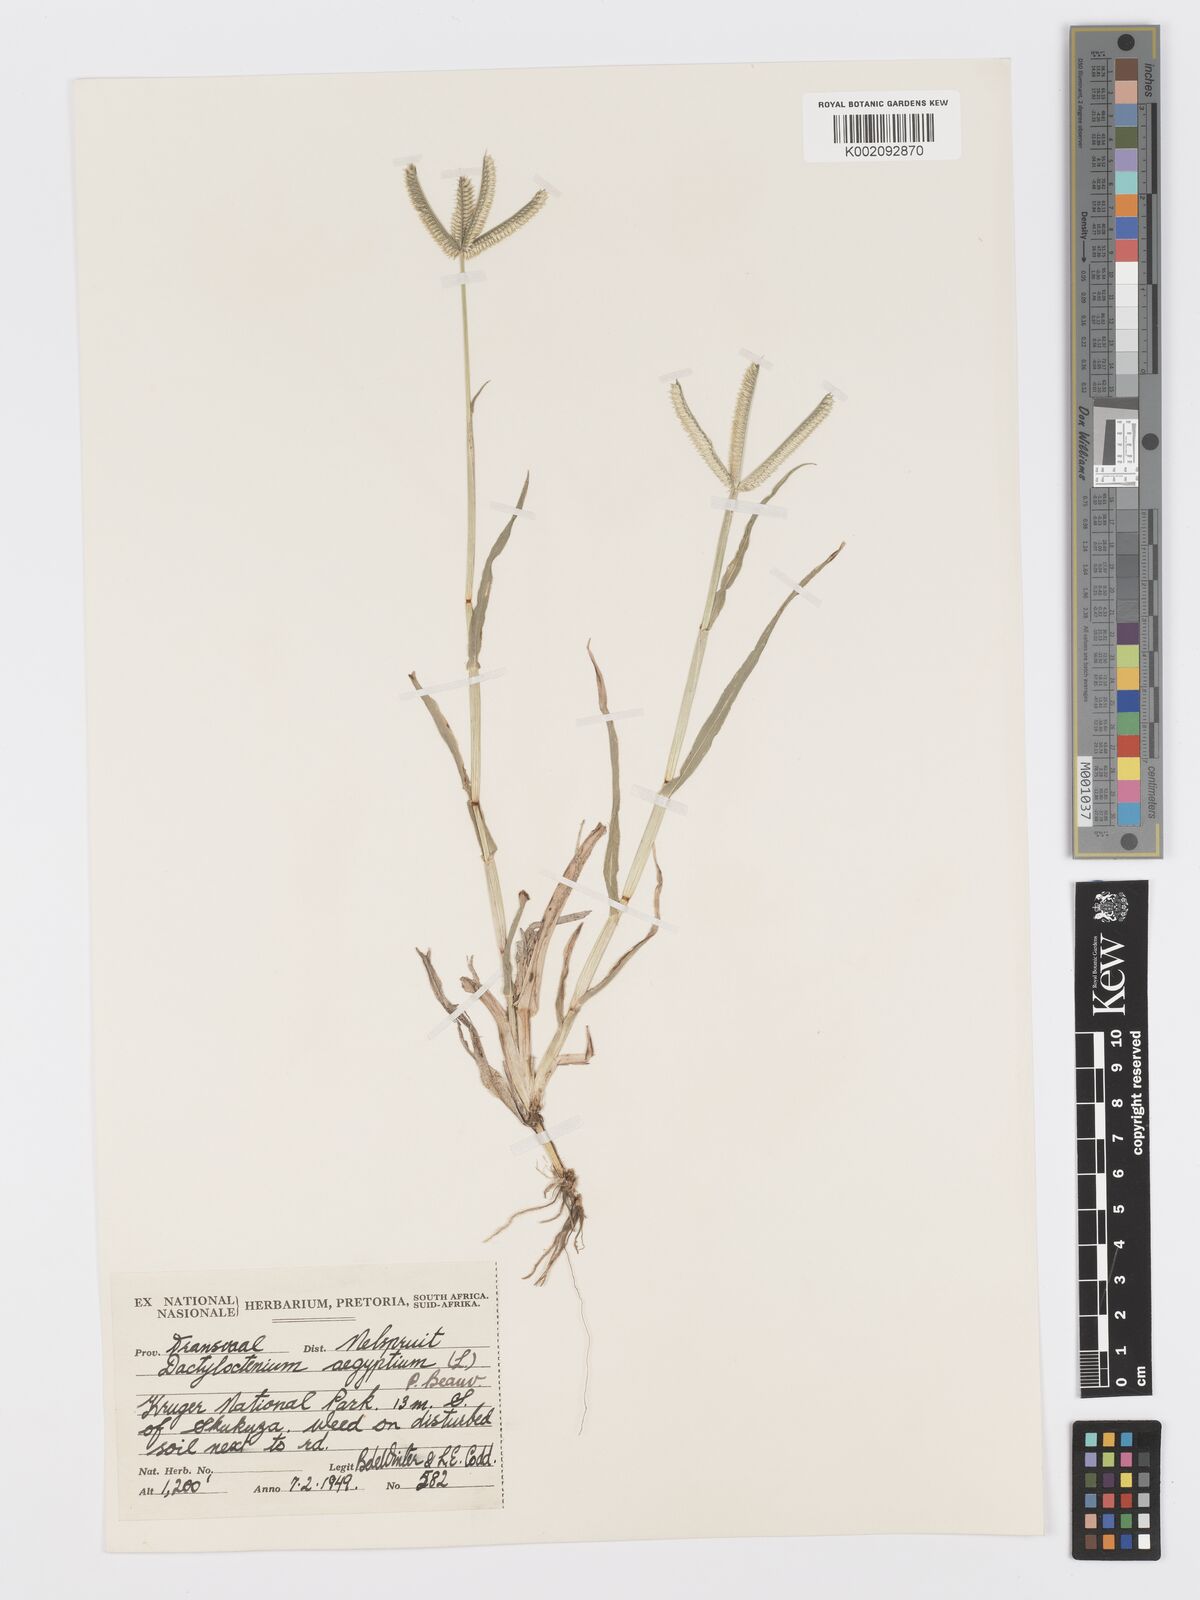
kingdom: Plantae
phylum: Tracheophyta
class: Liliopsida
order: Poales
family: Poaceae
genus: Dactyloctenium
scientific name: Dactyloctenium aegyptium
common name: Egyptian grass
